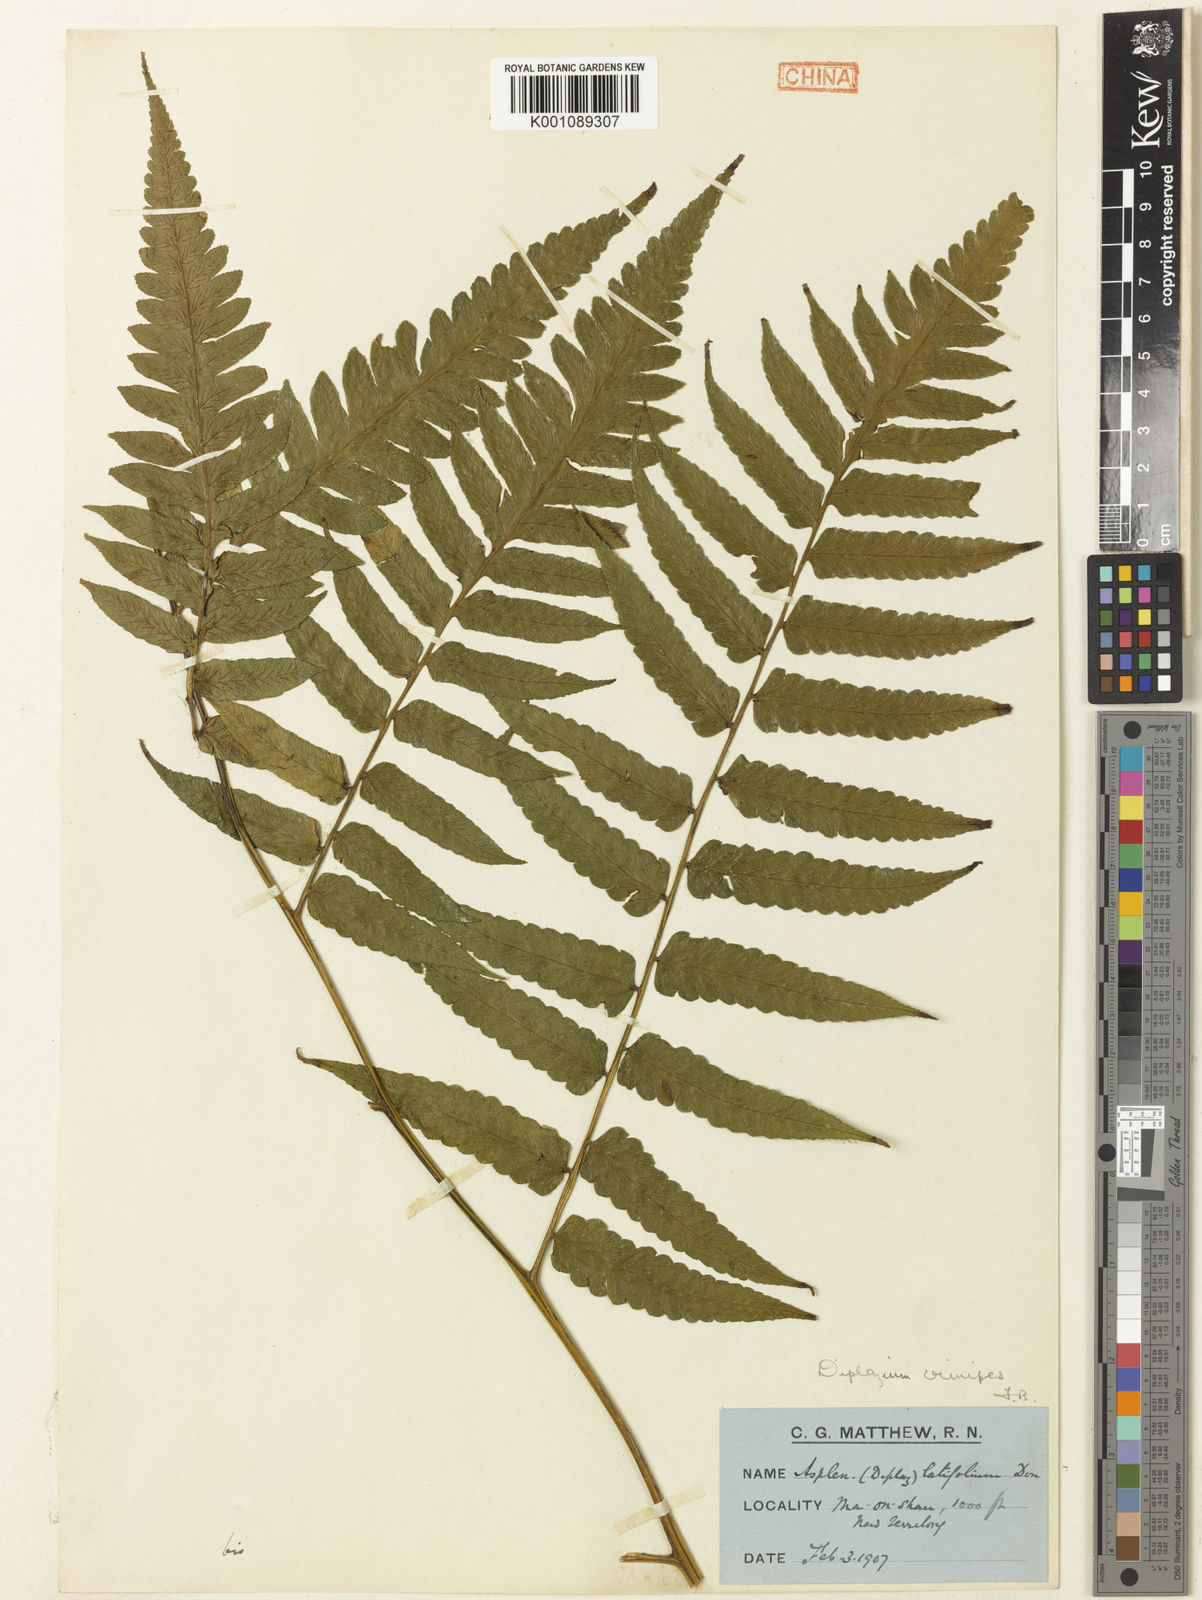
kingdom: Plantae
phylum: Tracheophyta
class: Polypodiopsida
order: Polypodiales
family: Athyriaceae
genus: Diplazium
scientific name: Diplazium dilatatum
